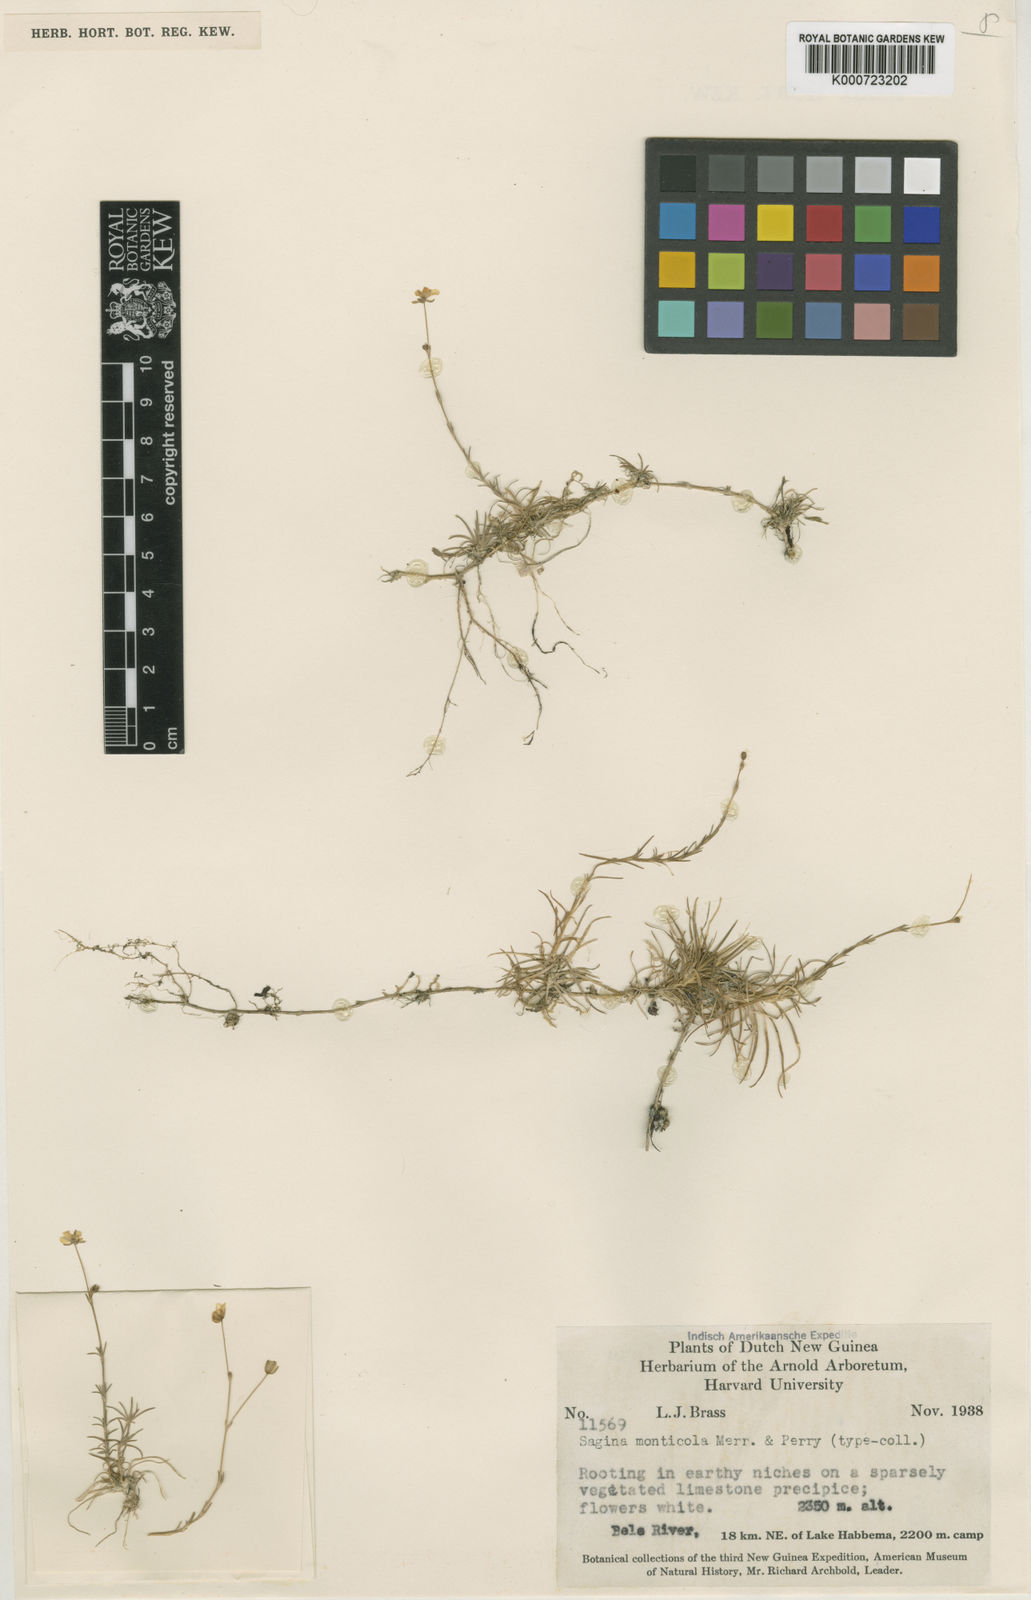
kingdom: Plantae
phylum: Tracheophyta
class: Magnoliopsida
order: Caryophyllales
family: Caryophyllaceae
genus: Sagina
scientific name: Sagina monticola
